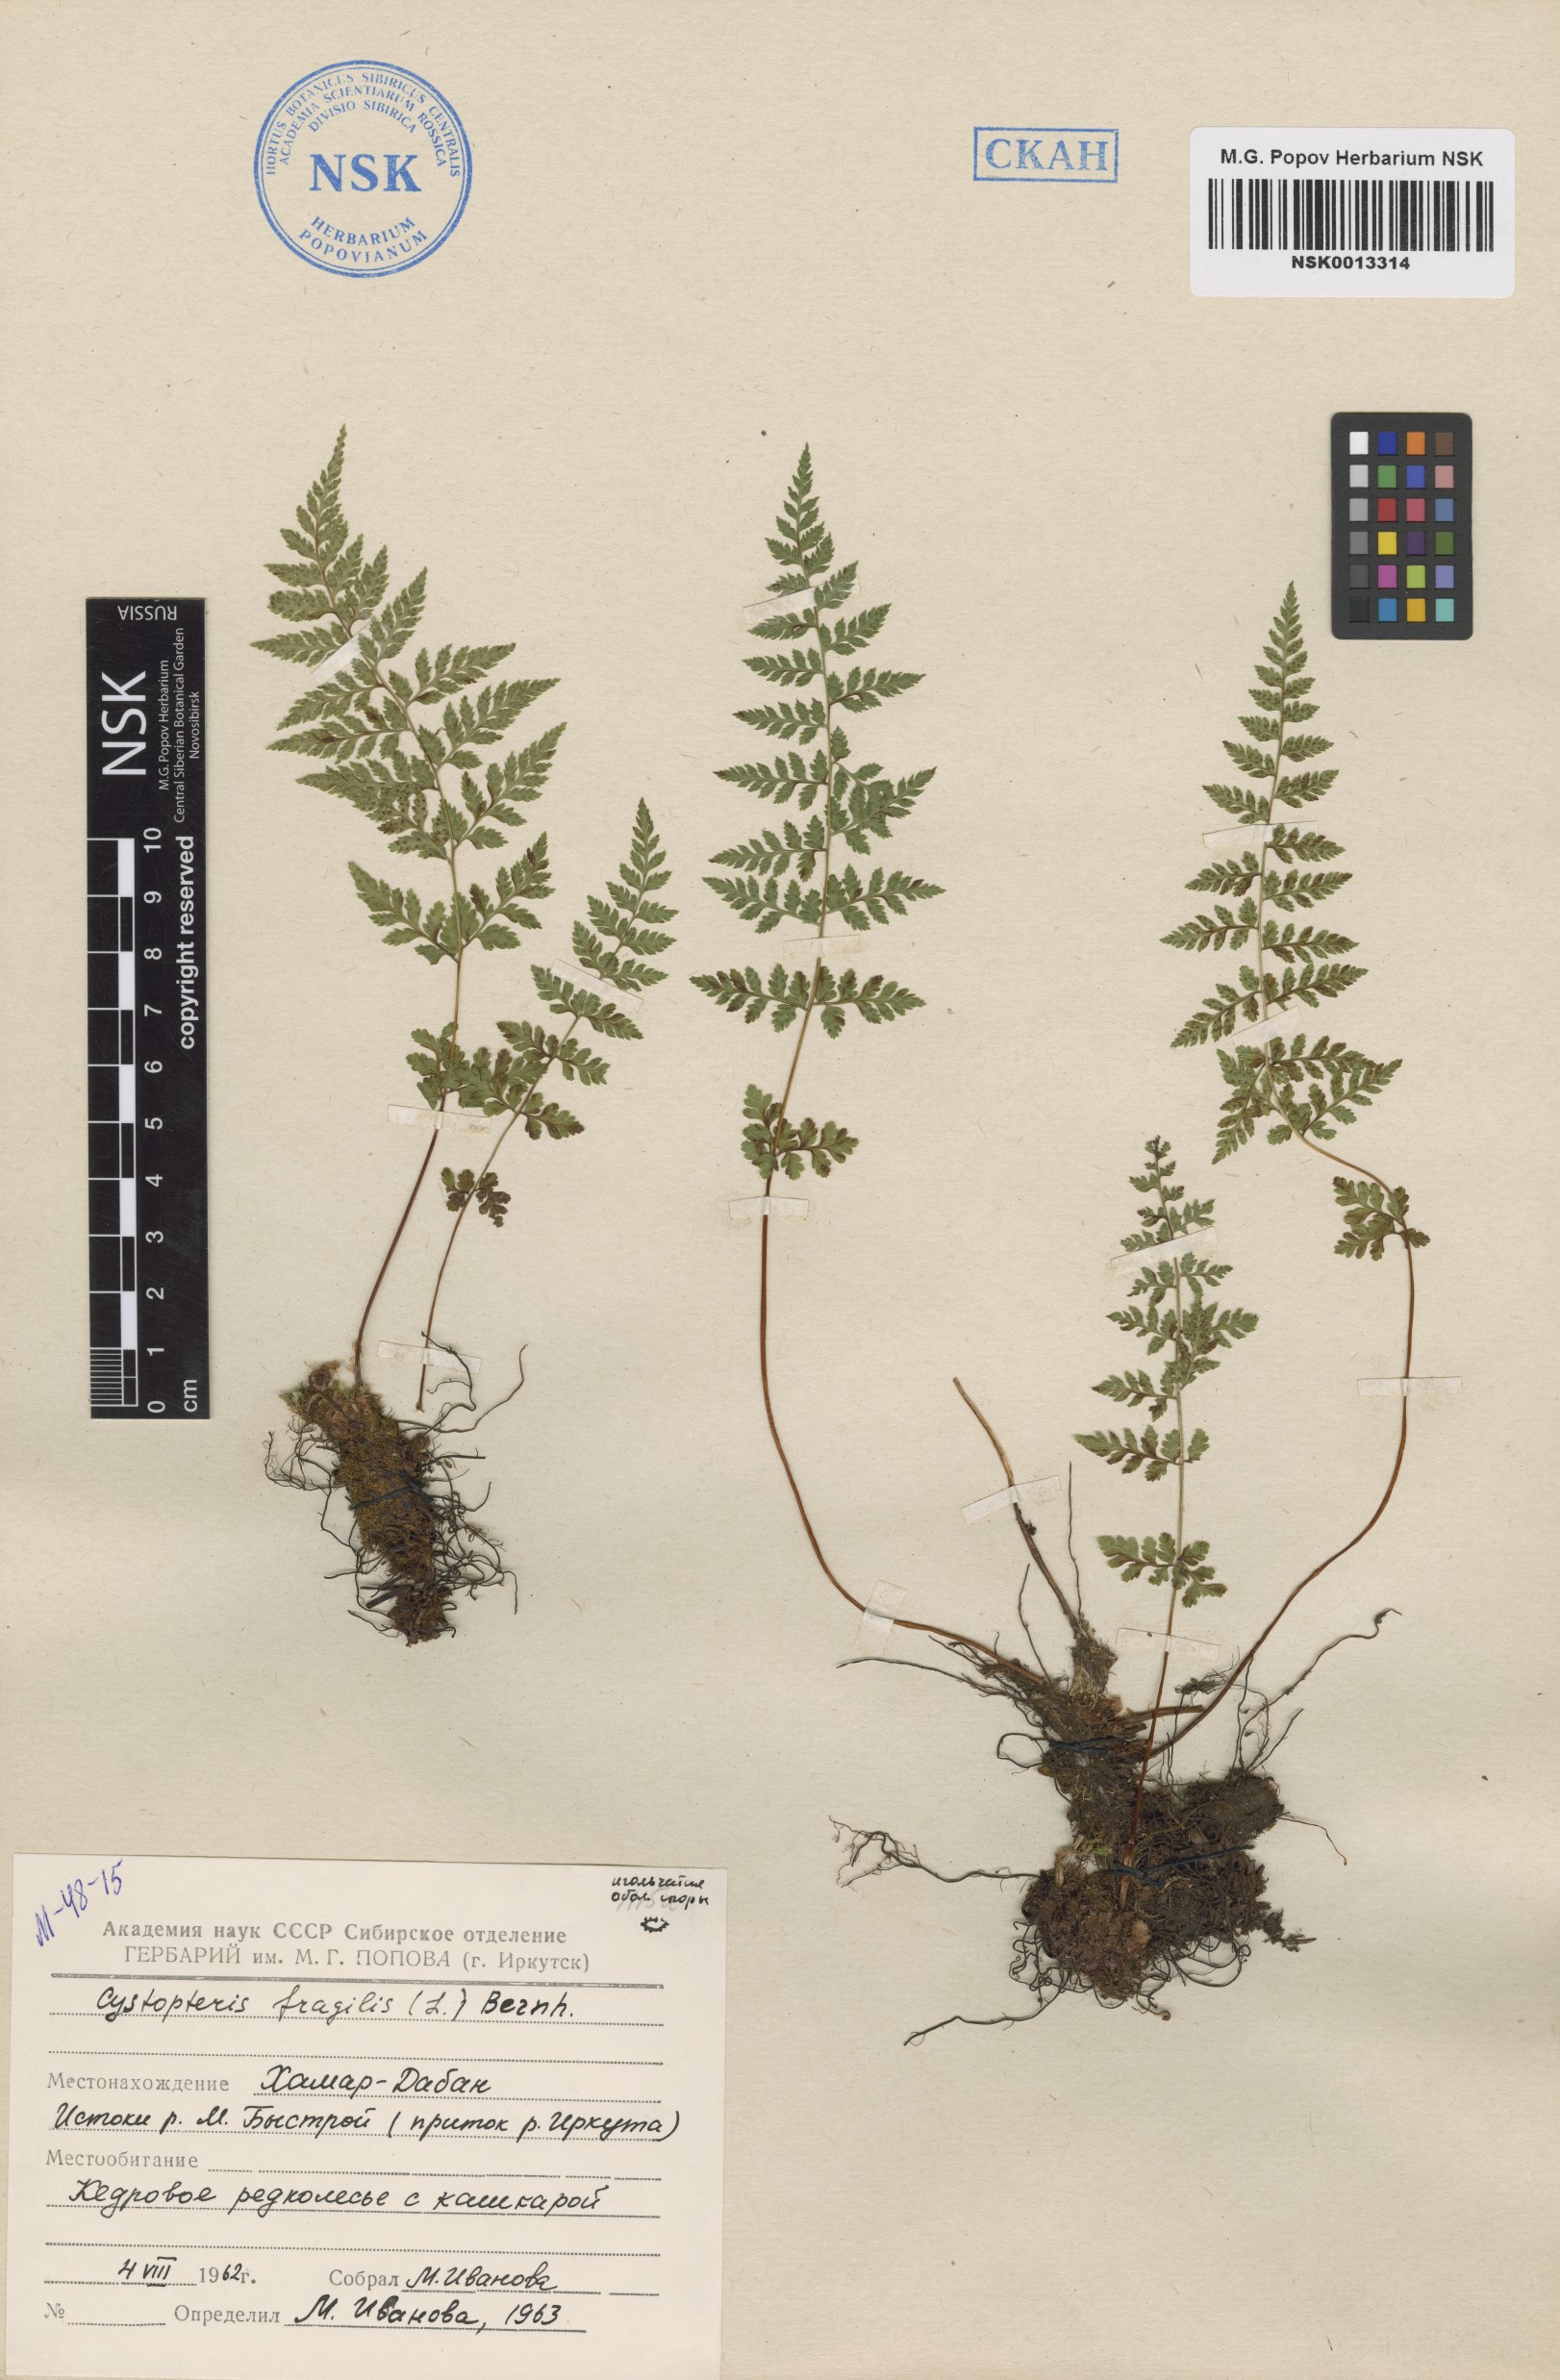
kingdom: Plantae
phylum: Tracheophyta
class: Polypodiopsida
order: Polypodiales
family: Cystopteridaceae
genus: Cystopteris
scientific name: Cystopteris fragilis
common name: Brittle bladder fern
